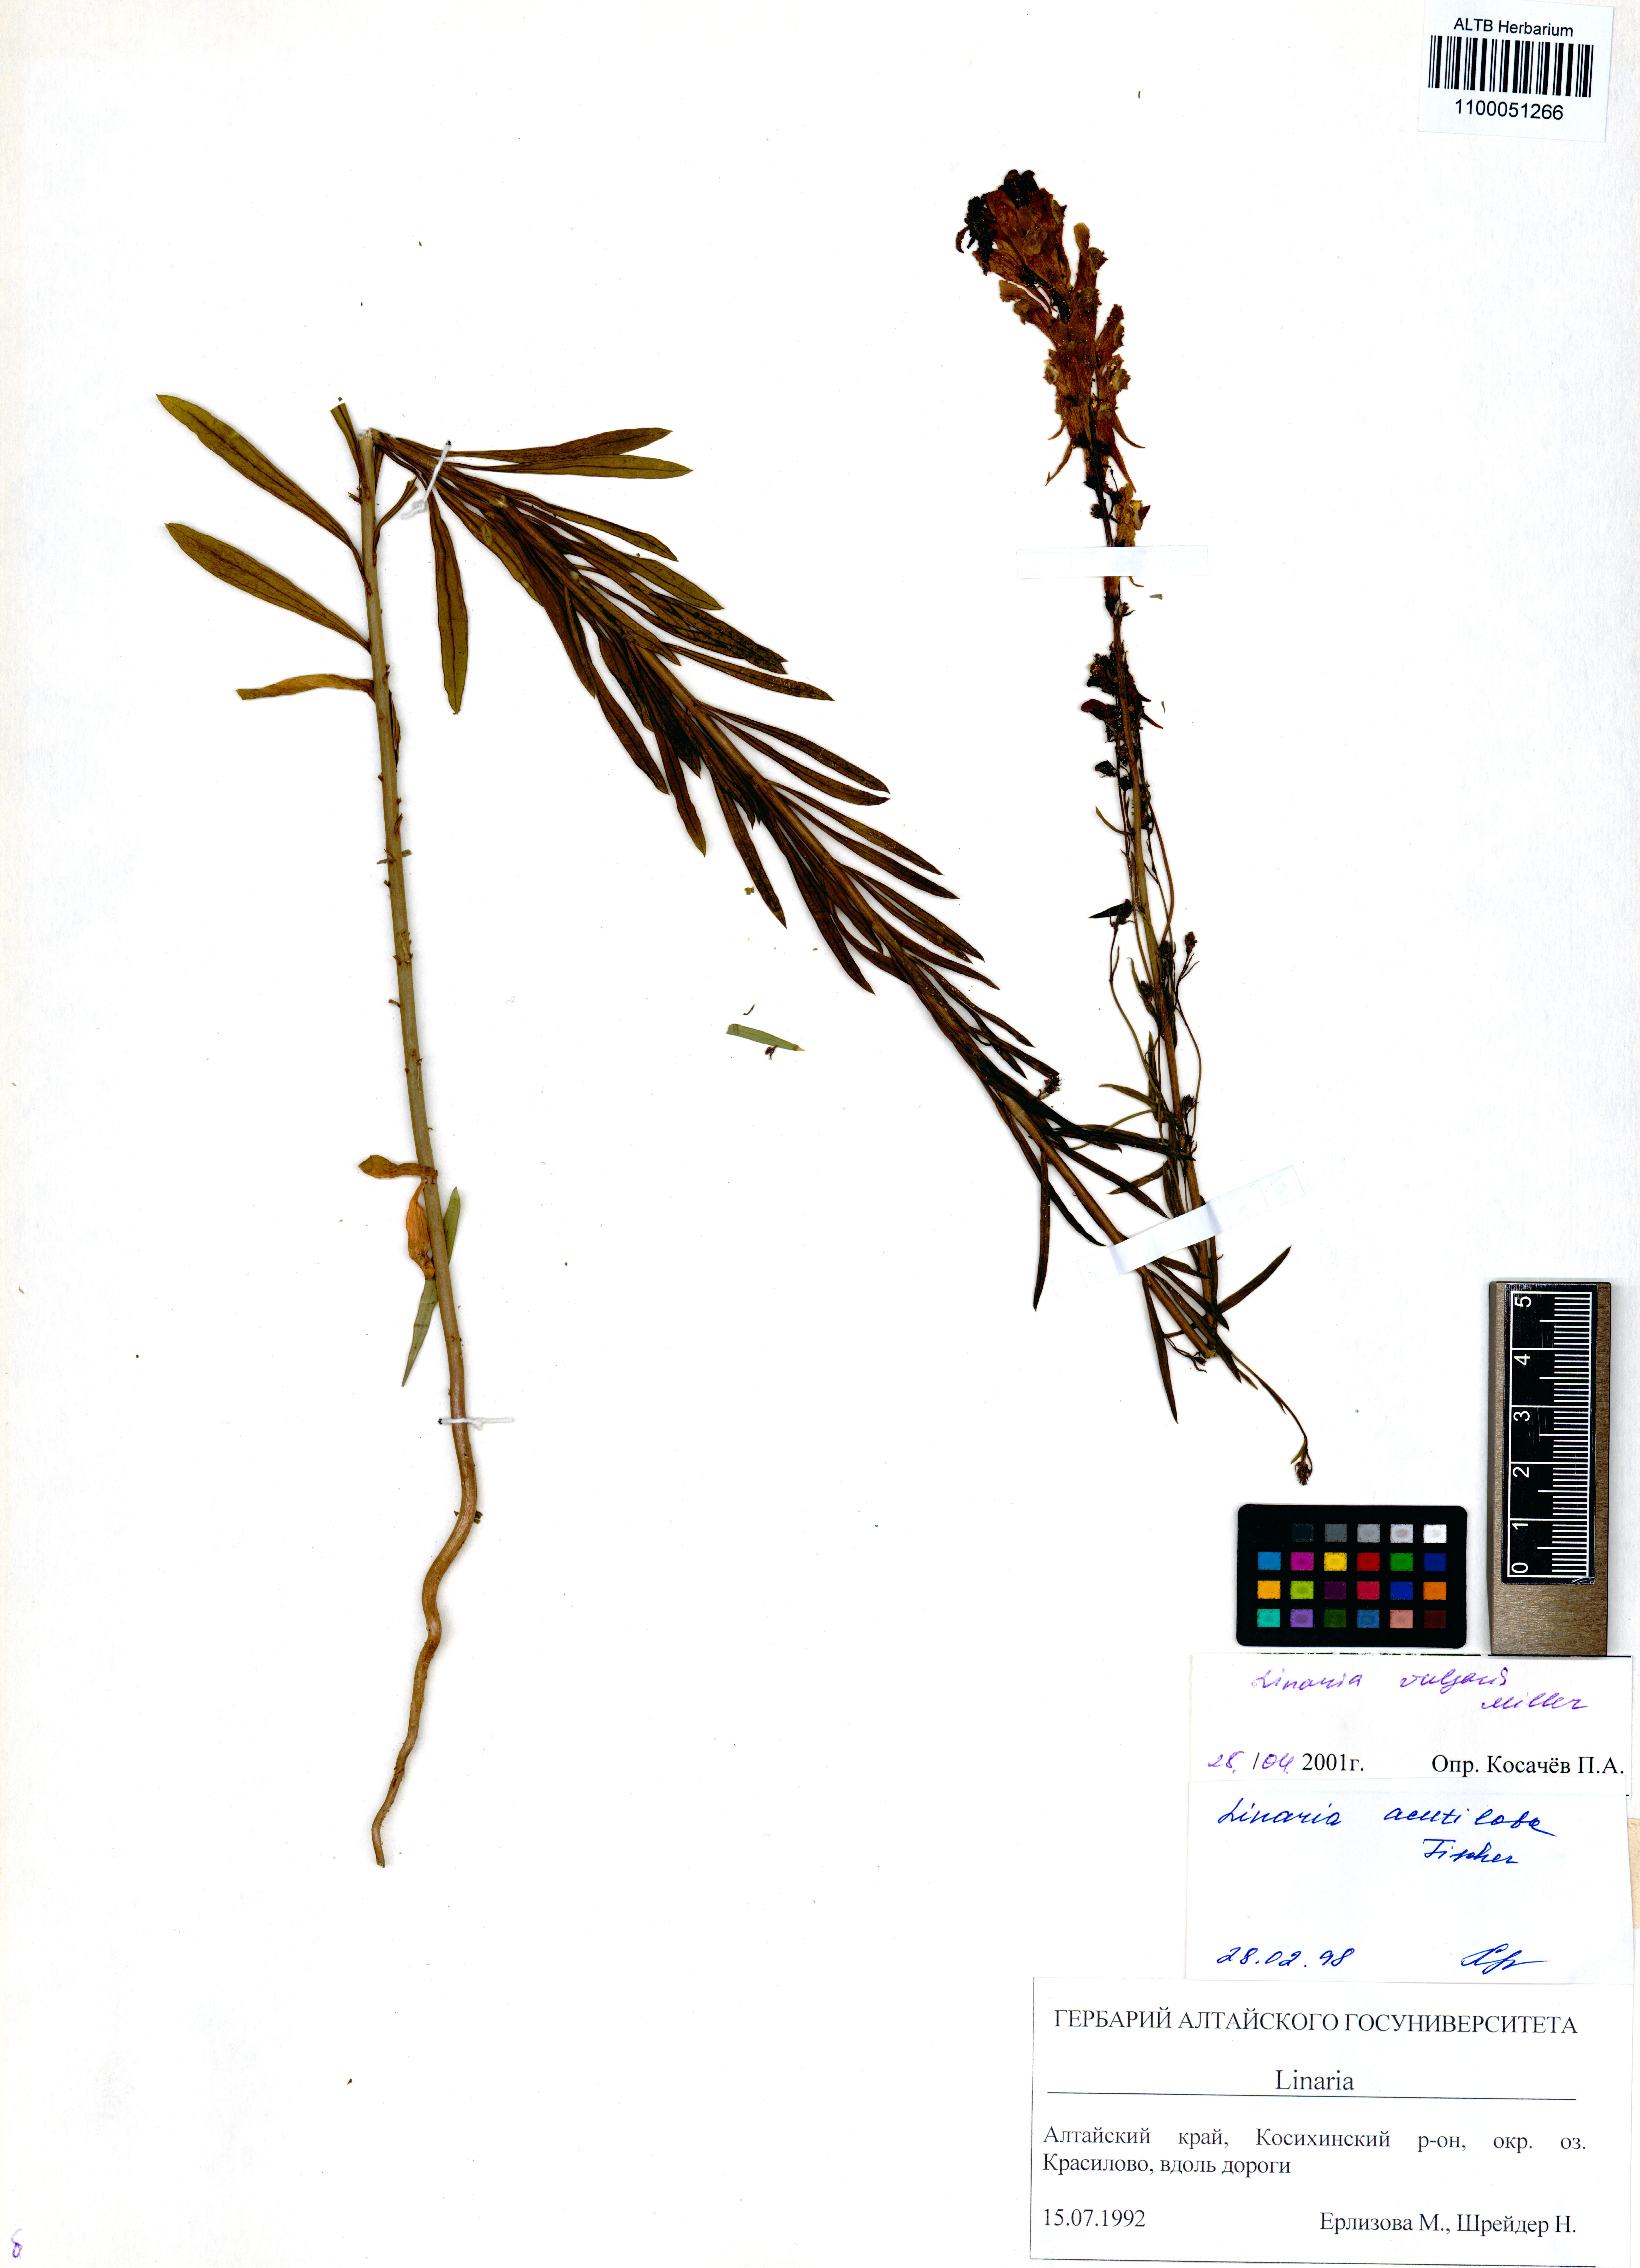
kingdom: Plantae
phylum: Tracheophyta
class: Magnoliopsida
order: Lamiales
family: Plantaginaceae
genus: Linaria
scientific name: Linaria vulgaris
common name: Butter and eggs
